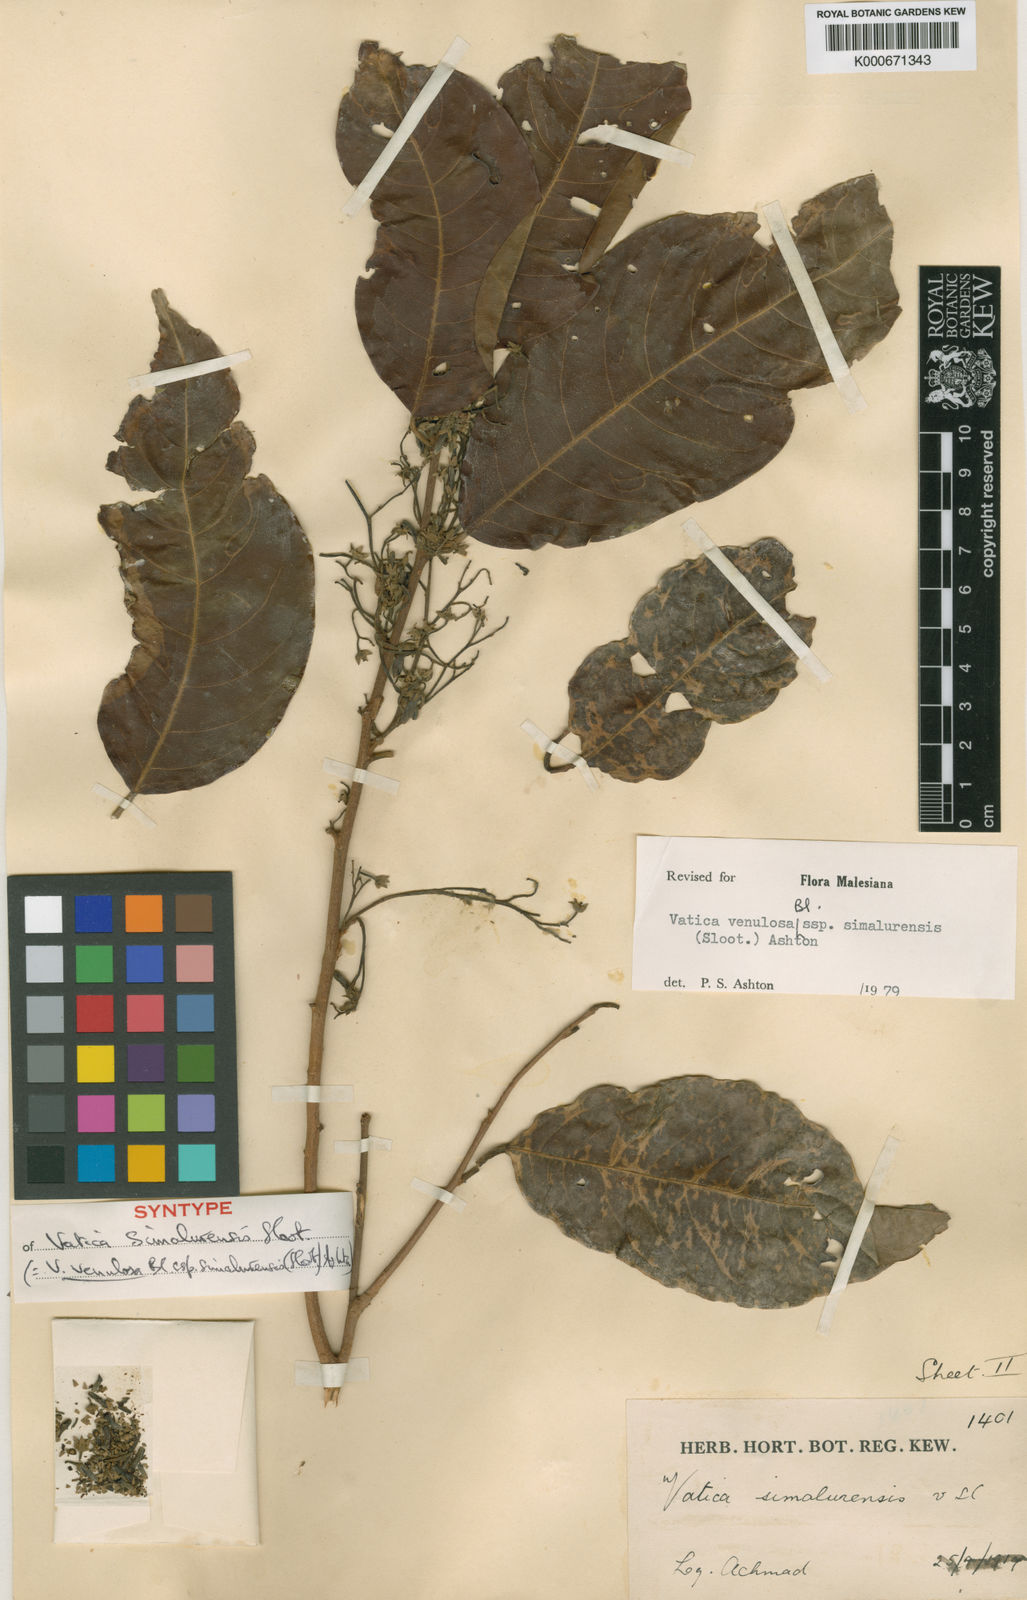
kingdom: Plantae
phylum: Tracheophyta
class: Magnoliopsida
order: Malvales
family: Dipterocarpaceae
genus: Vatica
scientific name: Vatica venulosa
